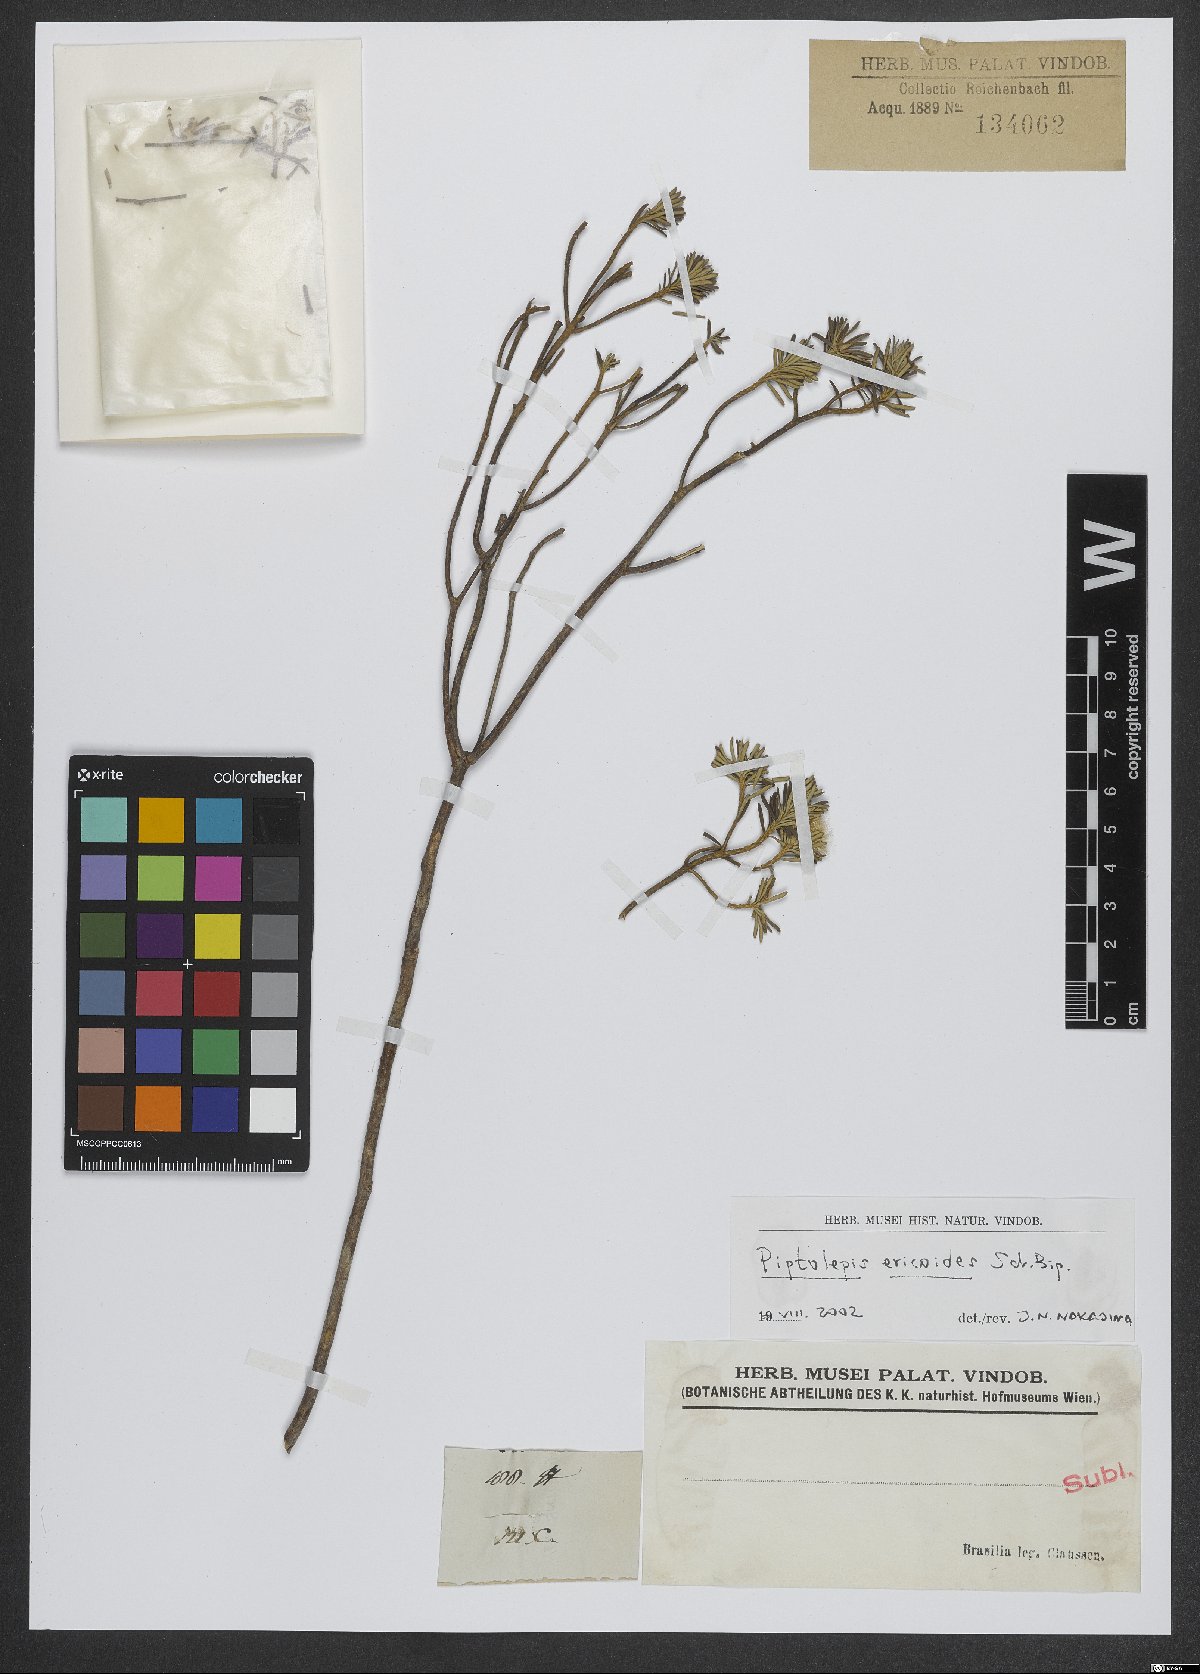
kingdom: Plantae
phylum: Tracheophyta
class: Magnoliopsida
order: Asterales
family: Asteraceae
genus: Piptolepis
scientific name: Piptolepis ericoides
